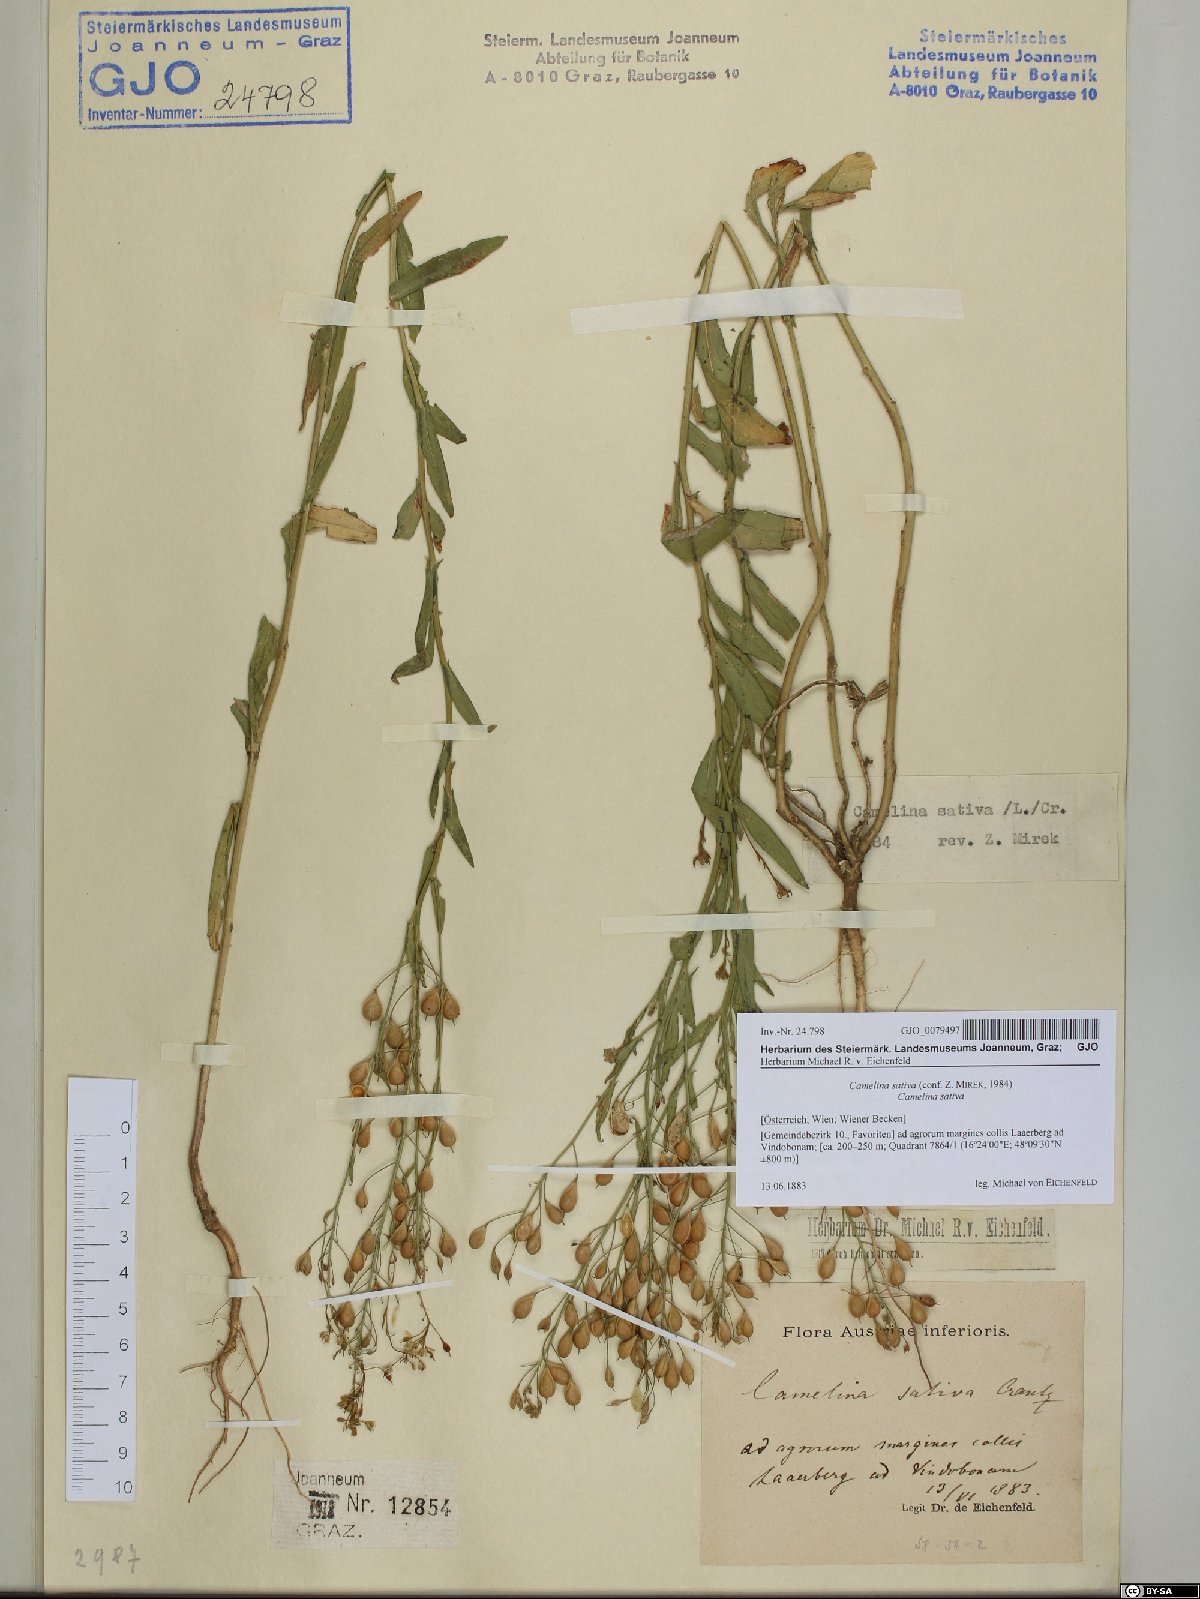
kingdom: Plantae
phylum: Tracheophyta
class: Magnoliopsida
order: Brassicales
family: Brassicaceae
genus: Camelina
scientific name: Camelina sativa
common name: Gold-of-pleasure
